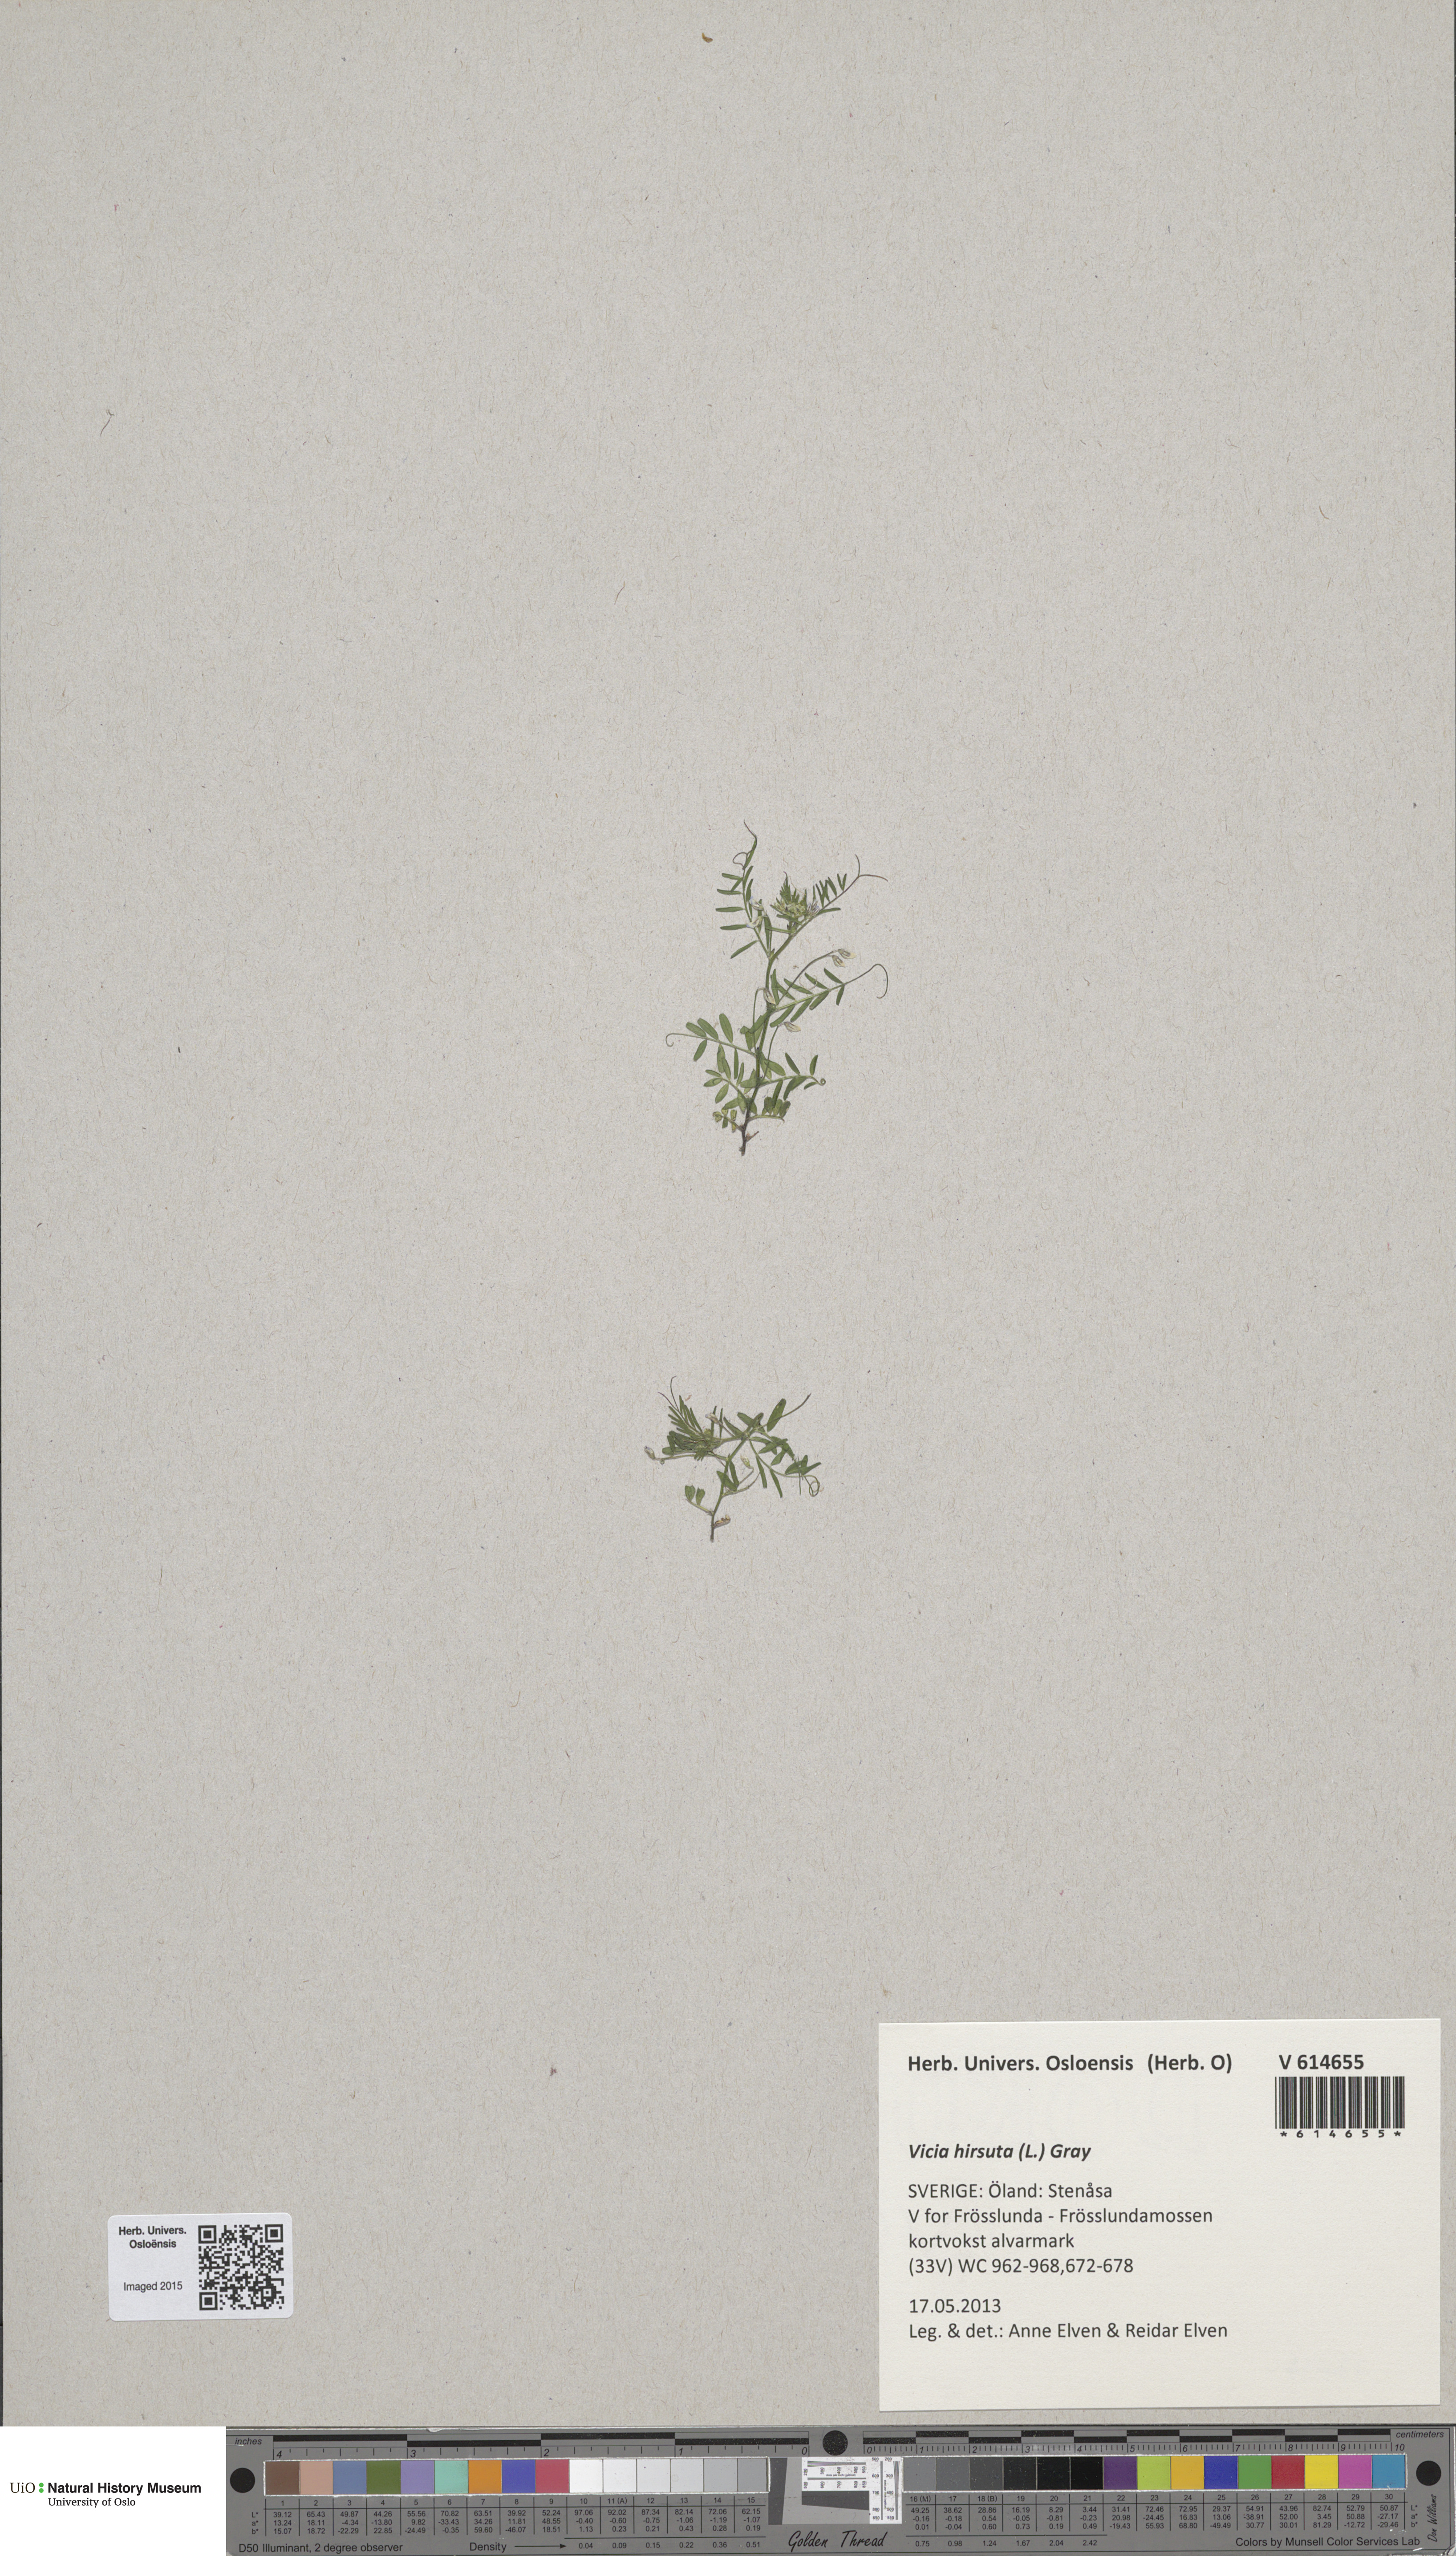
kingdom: Plantae
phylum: Tracheophyta
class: Magnoliopsida
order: Fabales
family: Fabaceae
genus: Vicia
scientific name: Vicia hirsuta
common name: Tiny vetch
